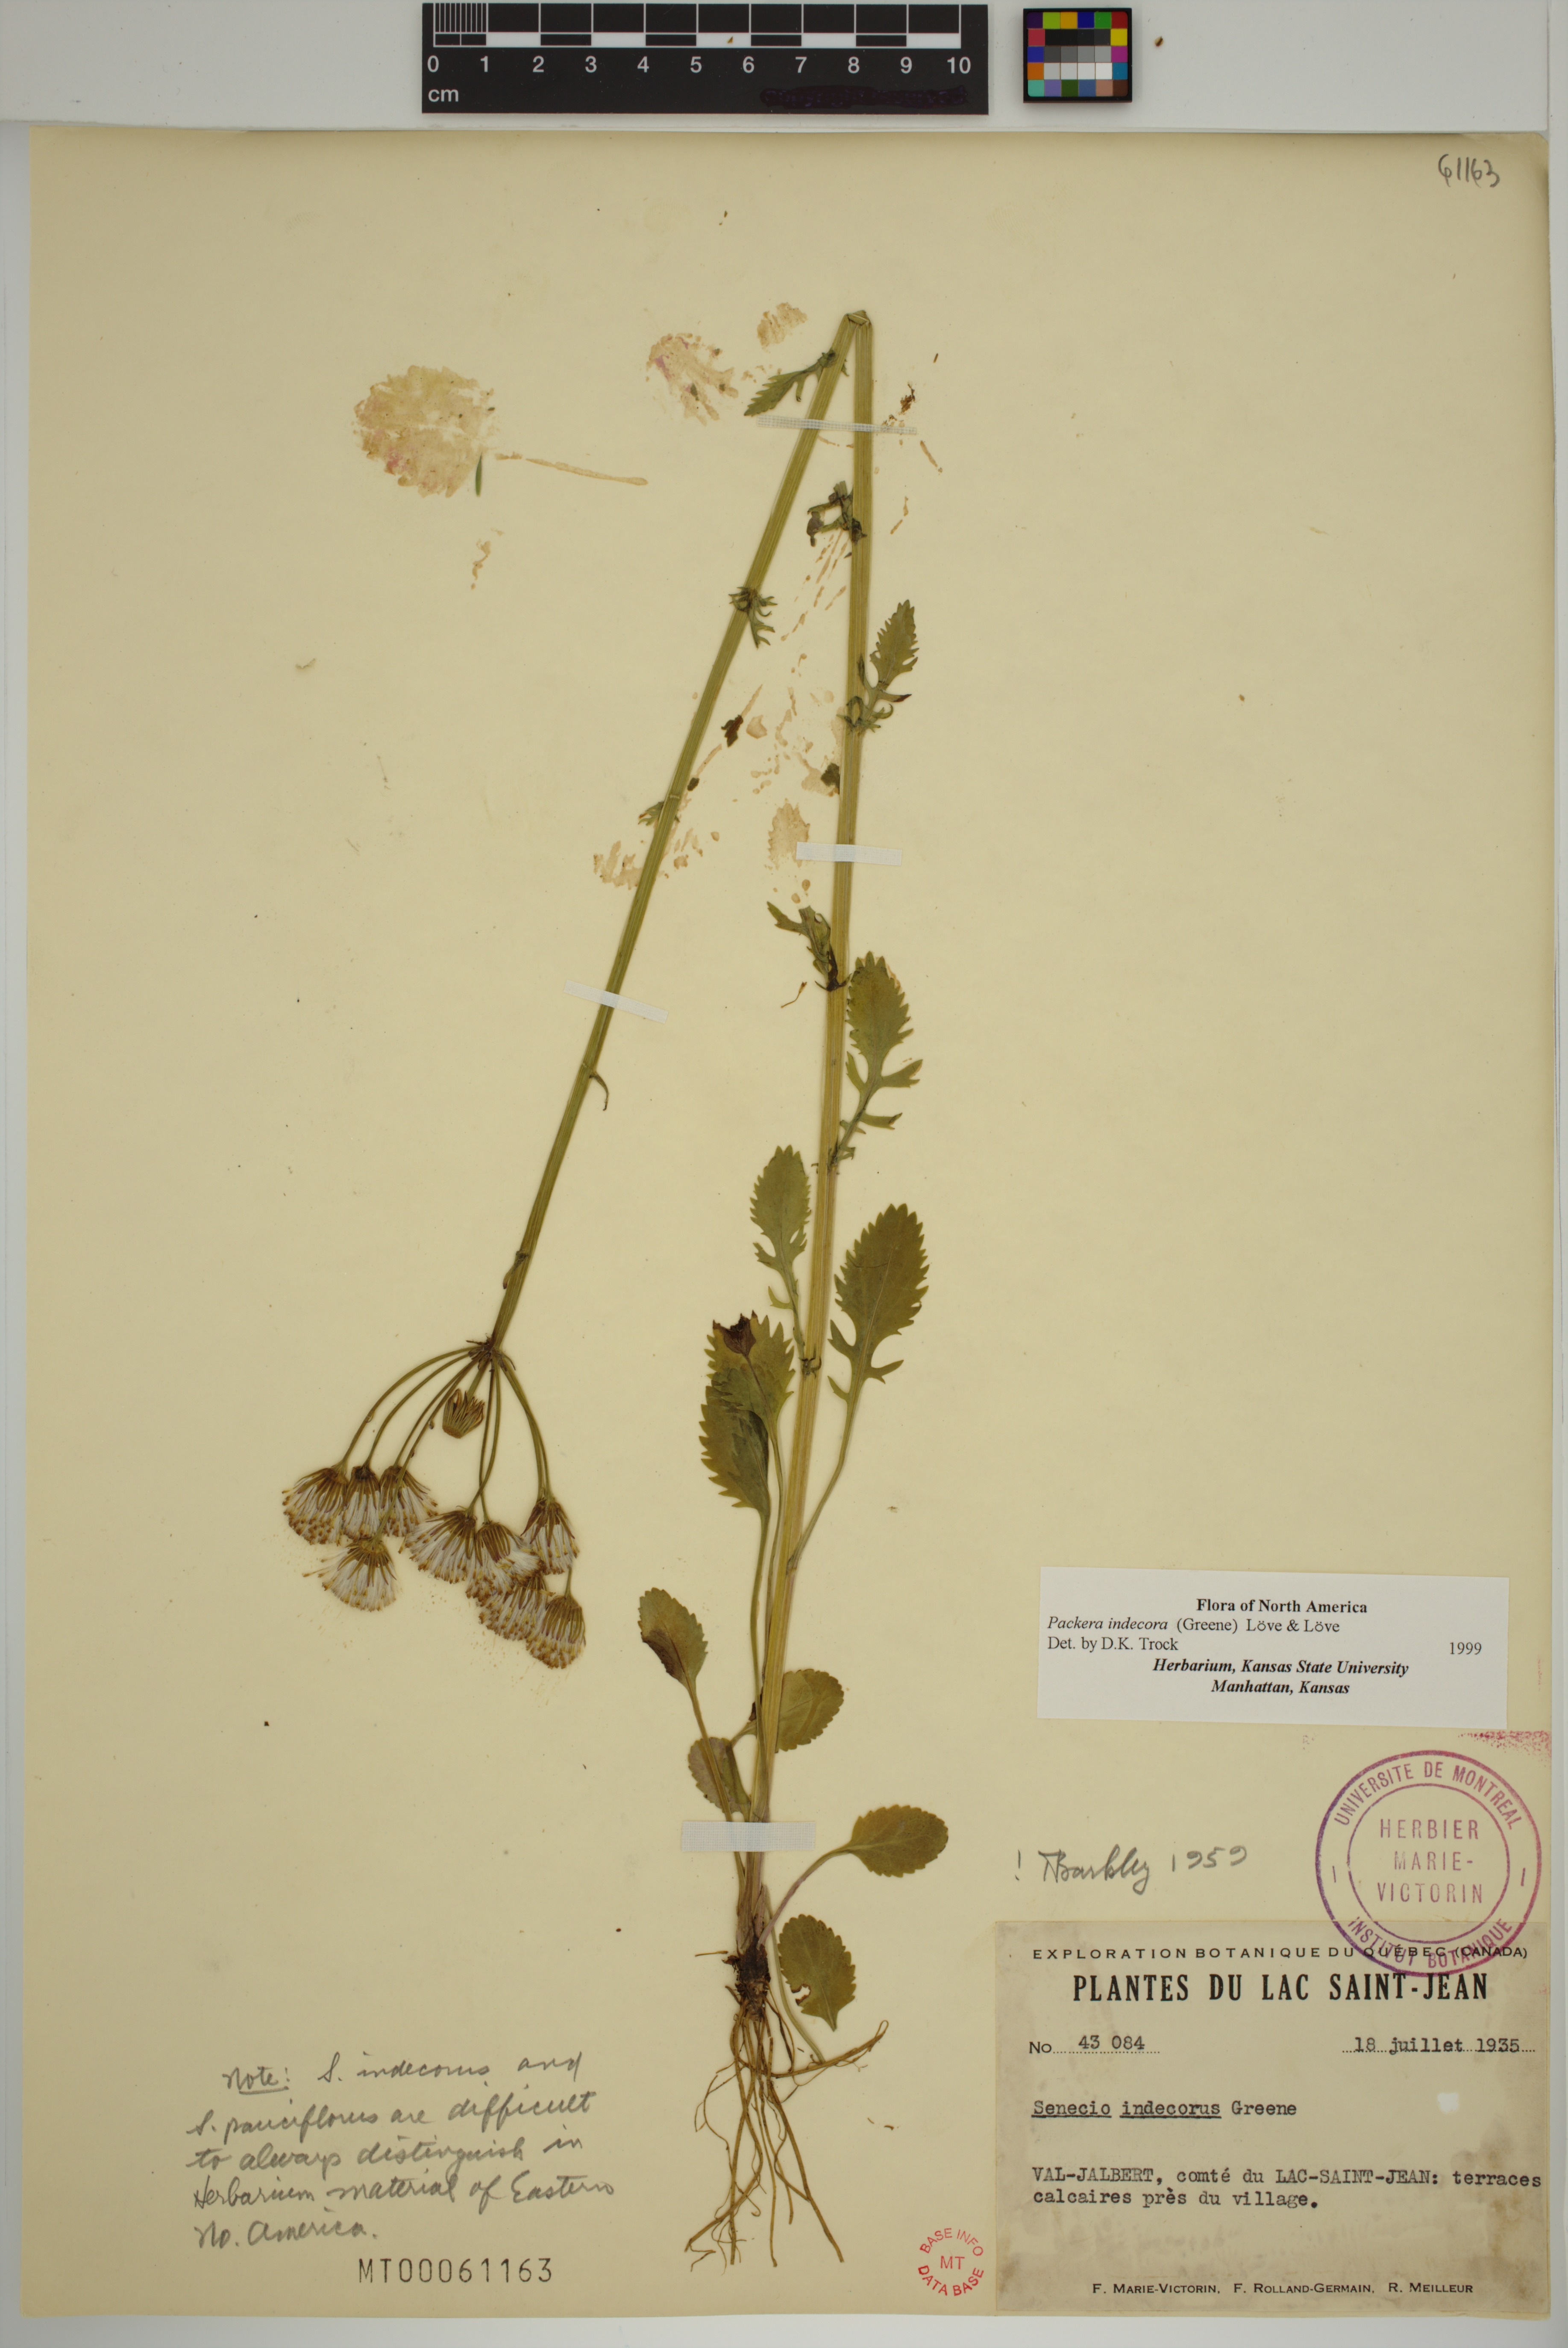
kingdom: Plantae
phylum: Tracheophyta
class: Magnoliopsida
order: Asterales
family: Asteraceae
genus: Packera
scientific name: Packera indecora
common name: Elegant groundsel
